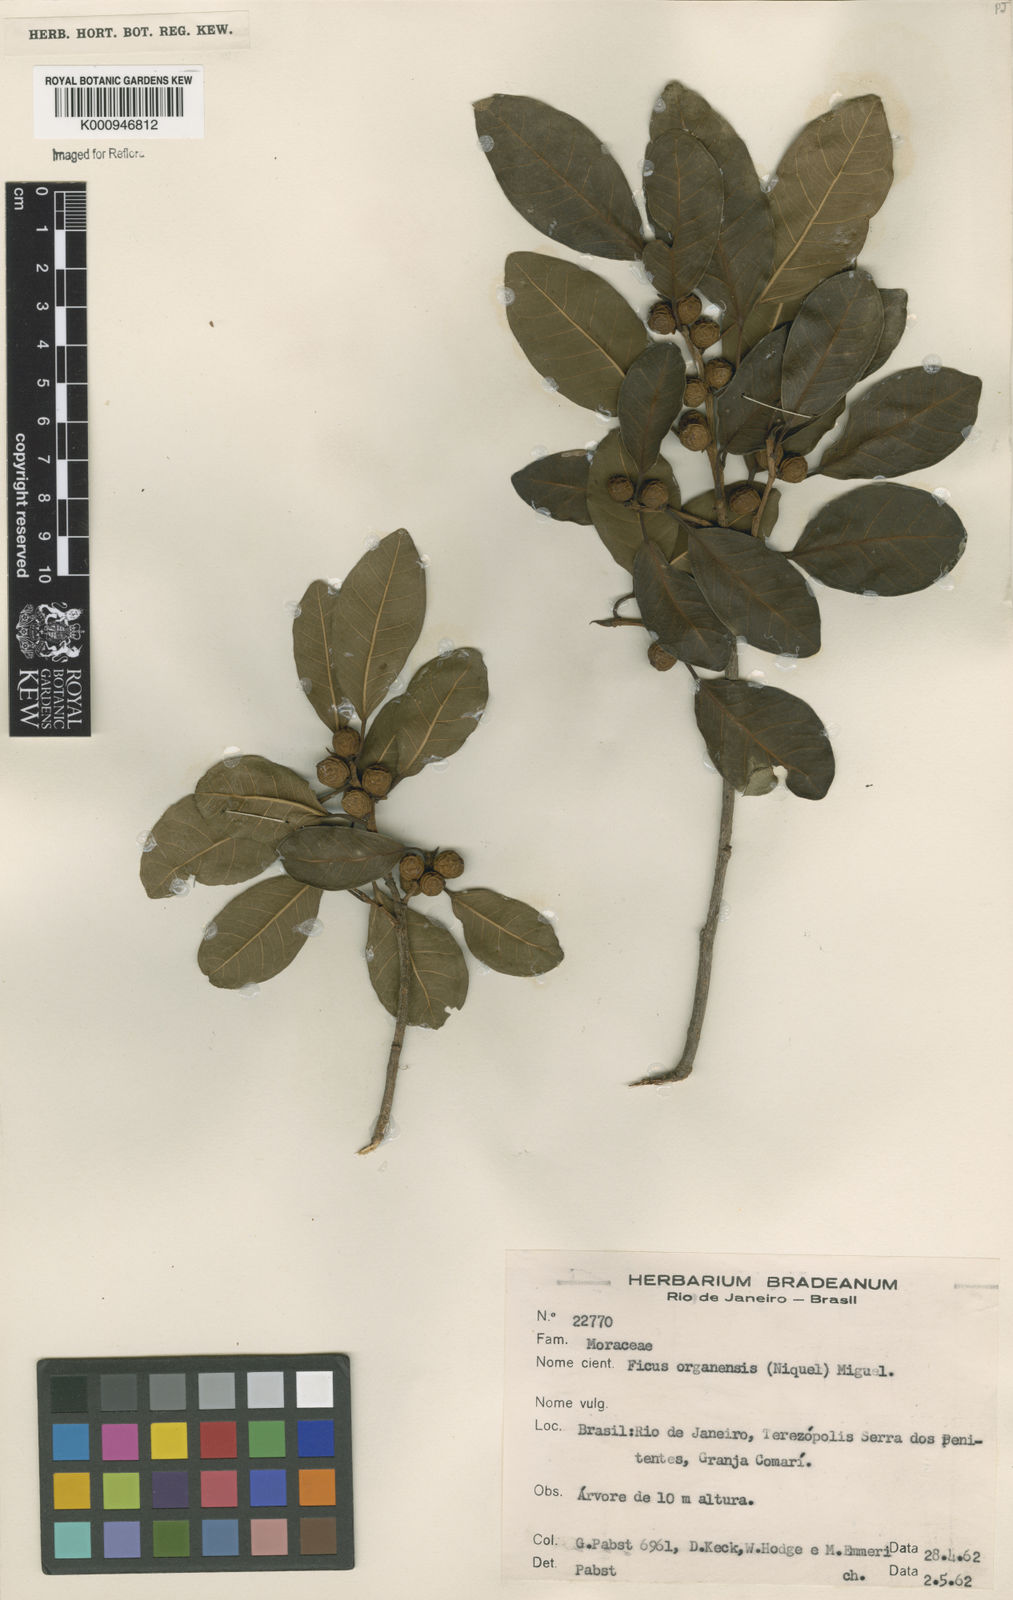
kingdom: Plantae
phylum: Tracheophyta
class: Magnoliopsida
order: Rosales
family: Moraceae
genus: Ficus
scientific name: Ficus organensis
